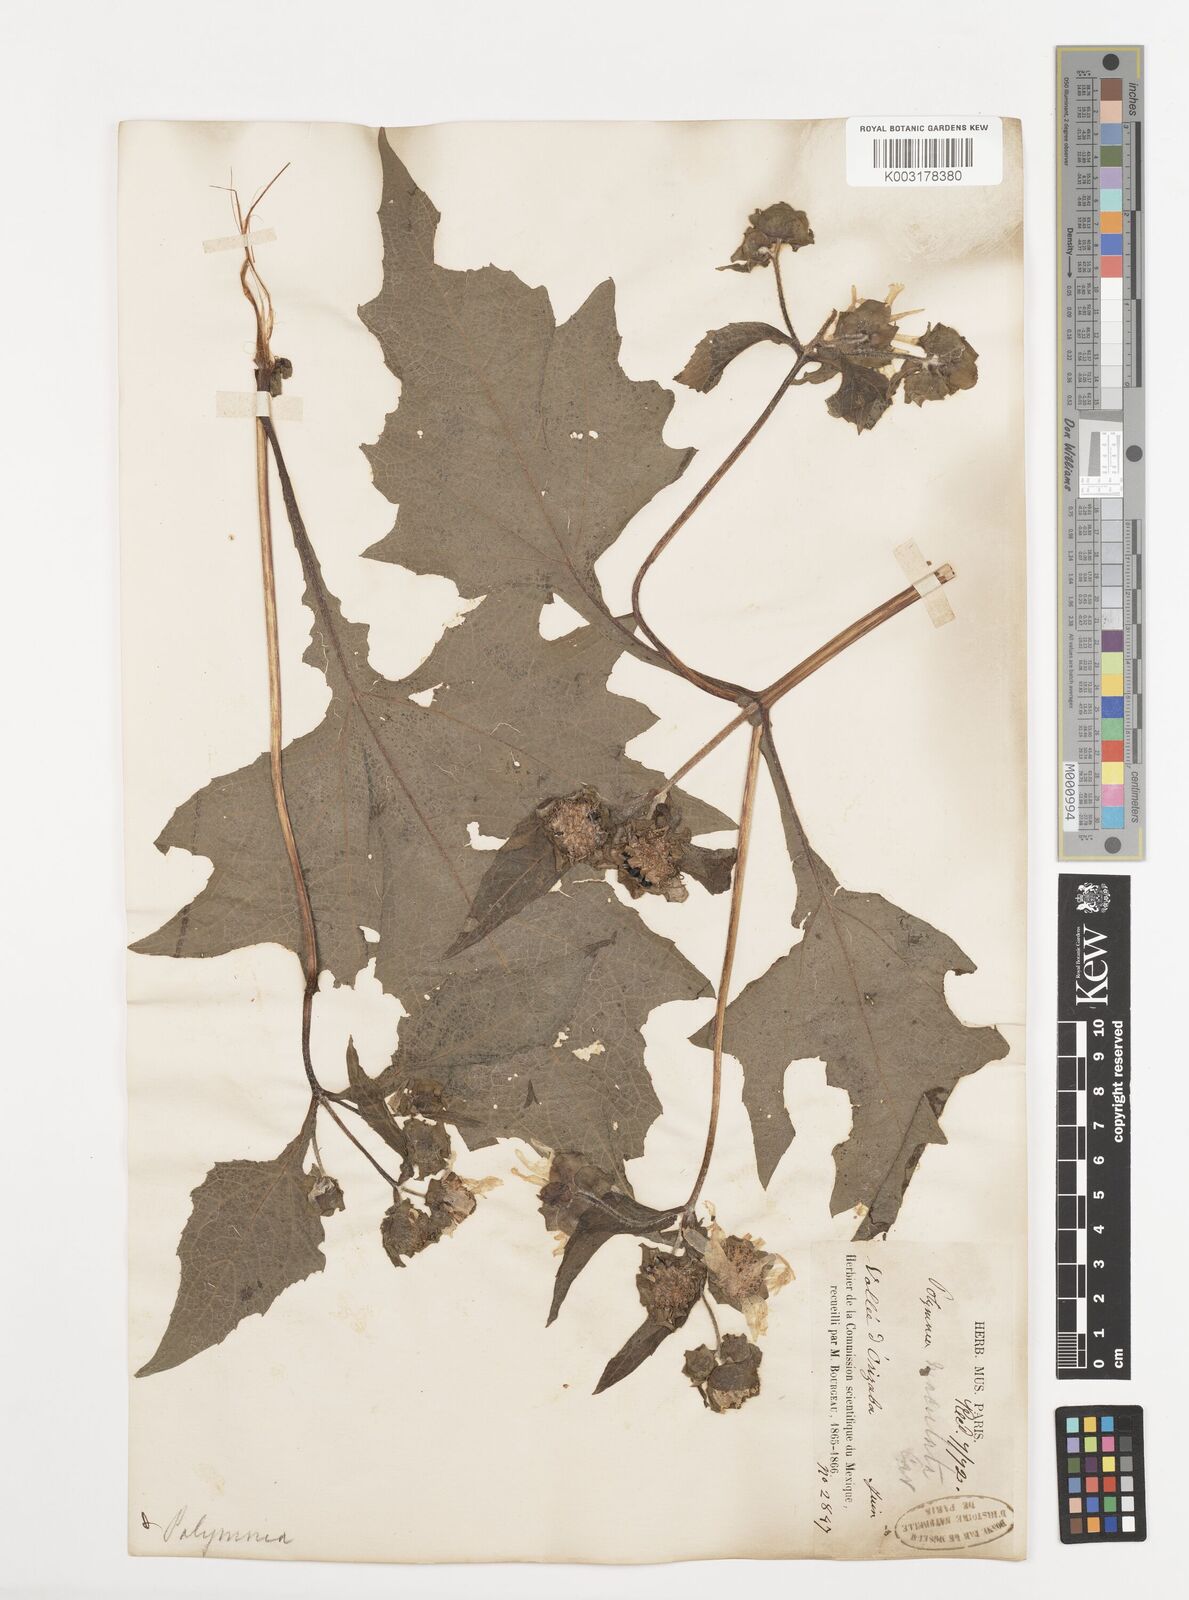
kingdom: Plantae
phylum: Tracheophyta
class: Magnoliopsida
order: Asterales
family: Asteraceae
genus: Smallanthus
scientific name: Smallanthus maculatus
